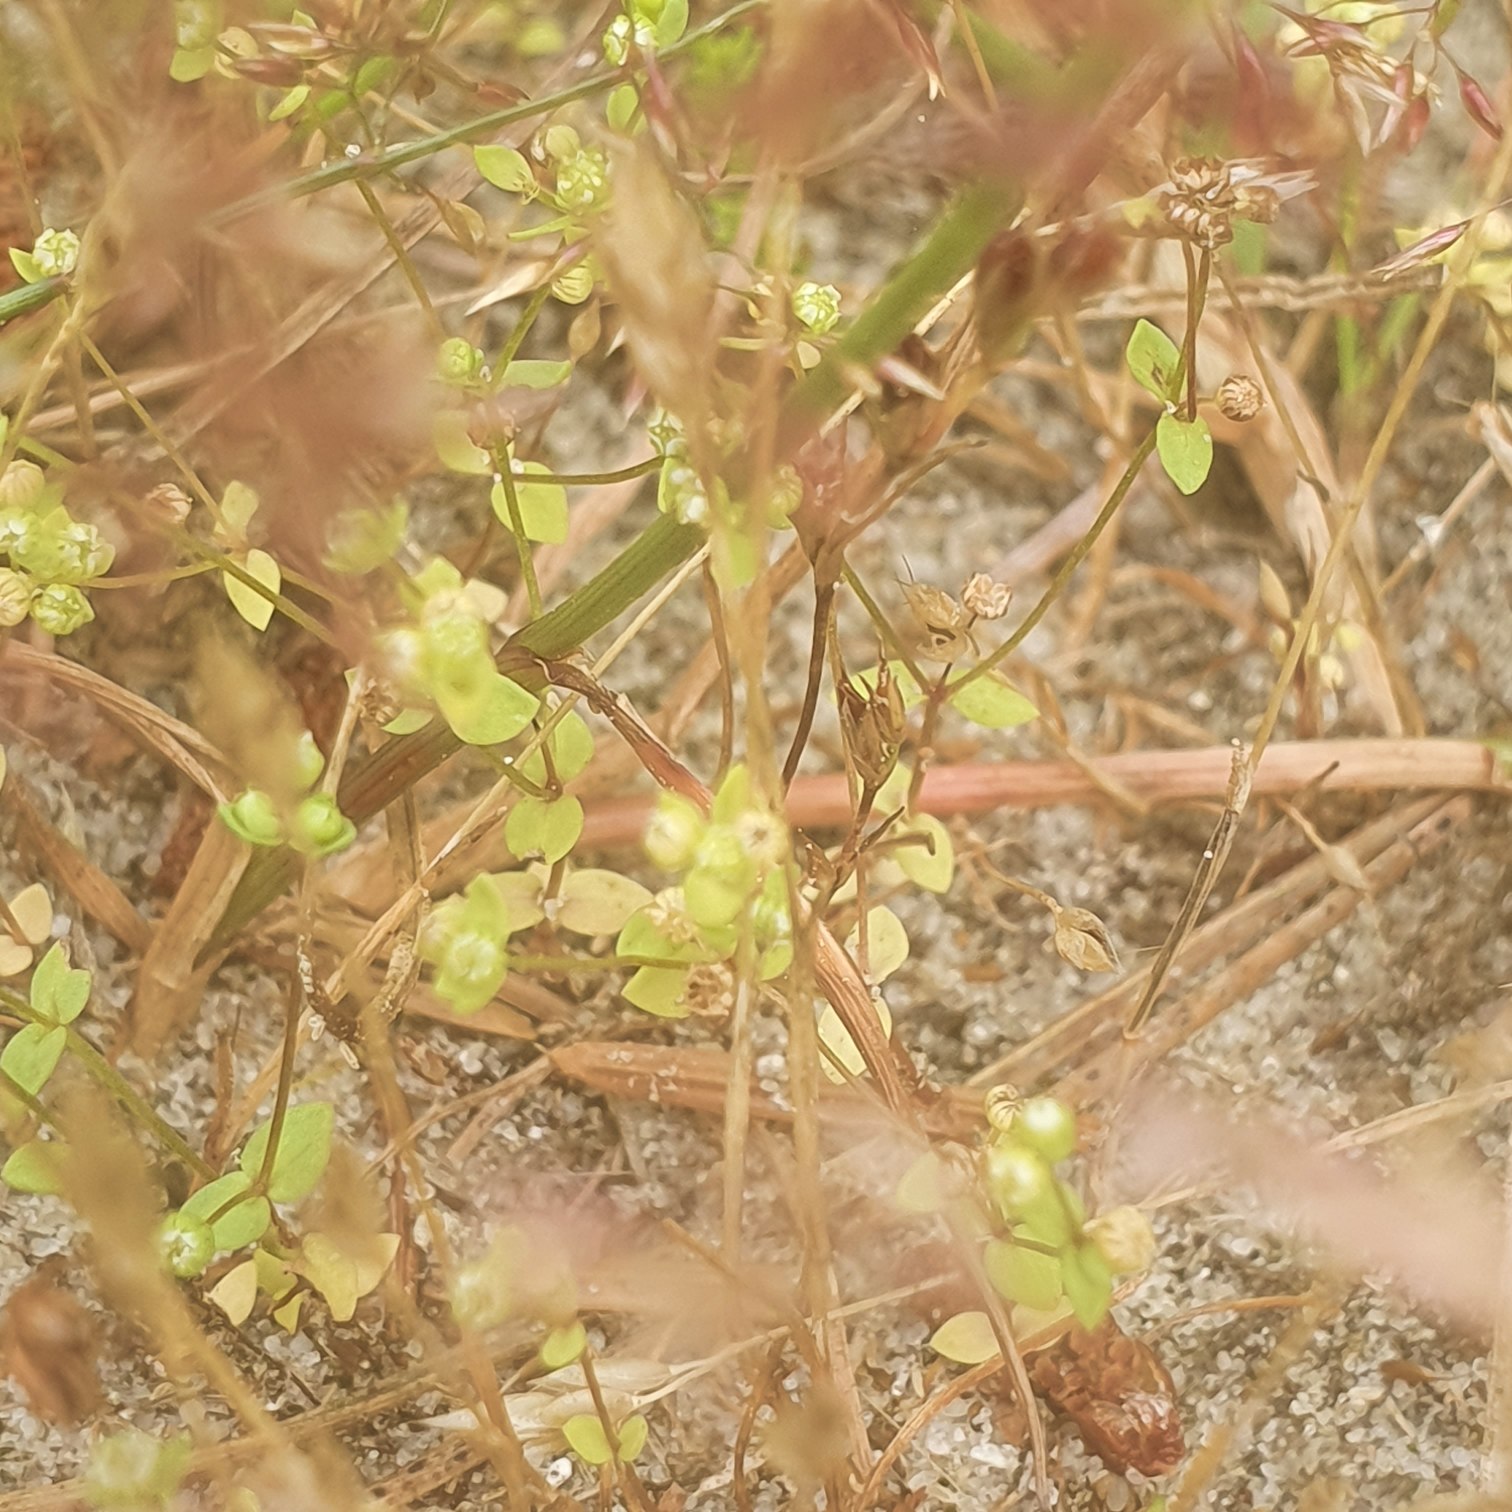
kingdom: Plantae
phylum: Tracheophyta
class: Magnoliopsida
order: Malpighiales
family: Linaceae
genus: Radiola
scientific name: Radiola linoides
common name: Tusindfrø
